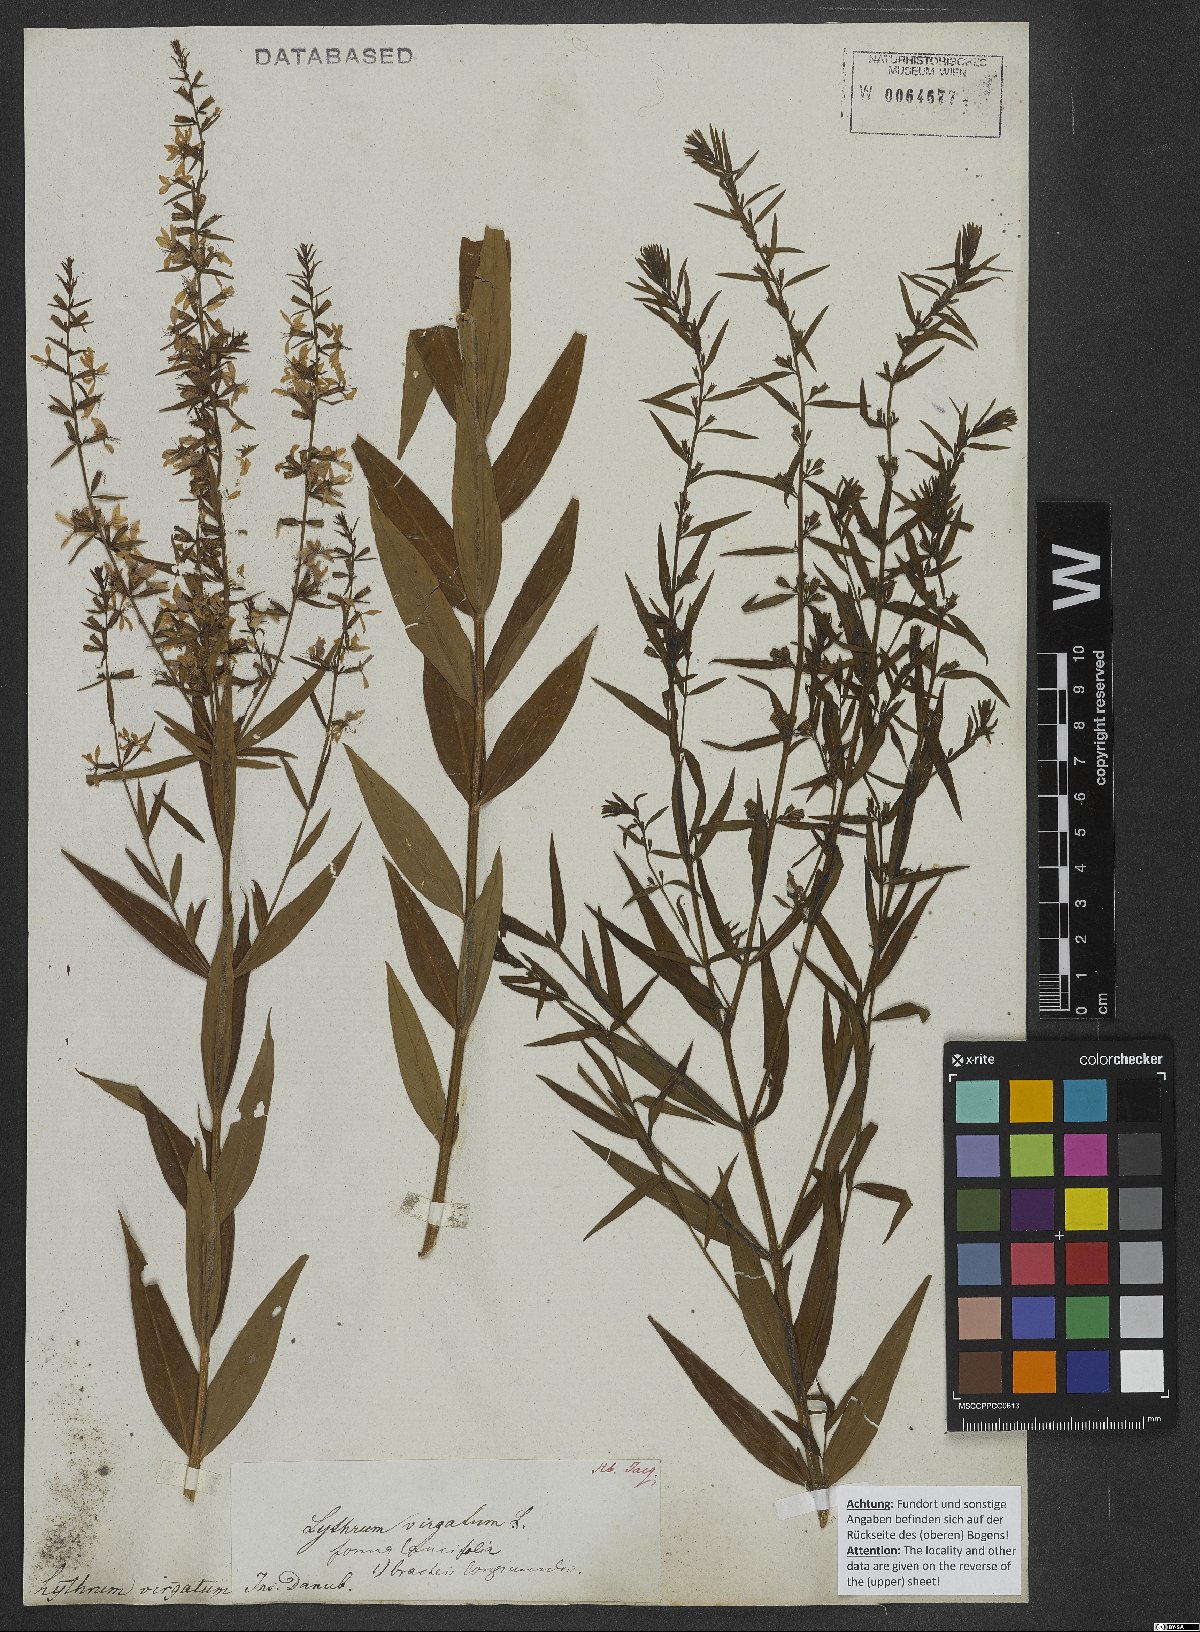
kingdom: Plantae
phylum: Tracheophyta
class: Magnoliopsida
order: Myrtales
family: Lythraceae
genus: Lythrum
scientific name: Lythrum virgatum
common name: European wand loosestrife
